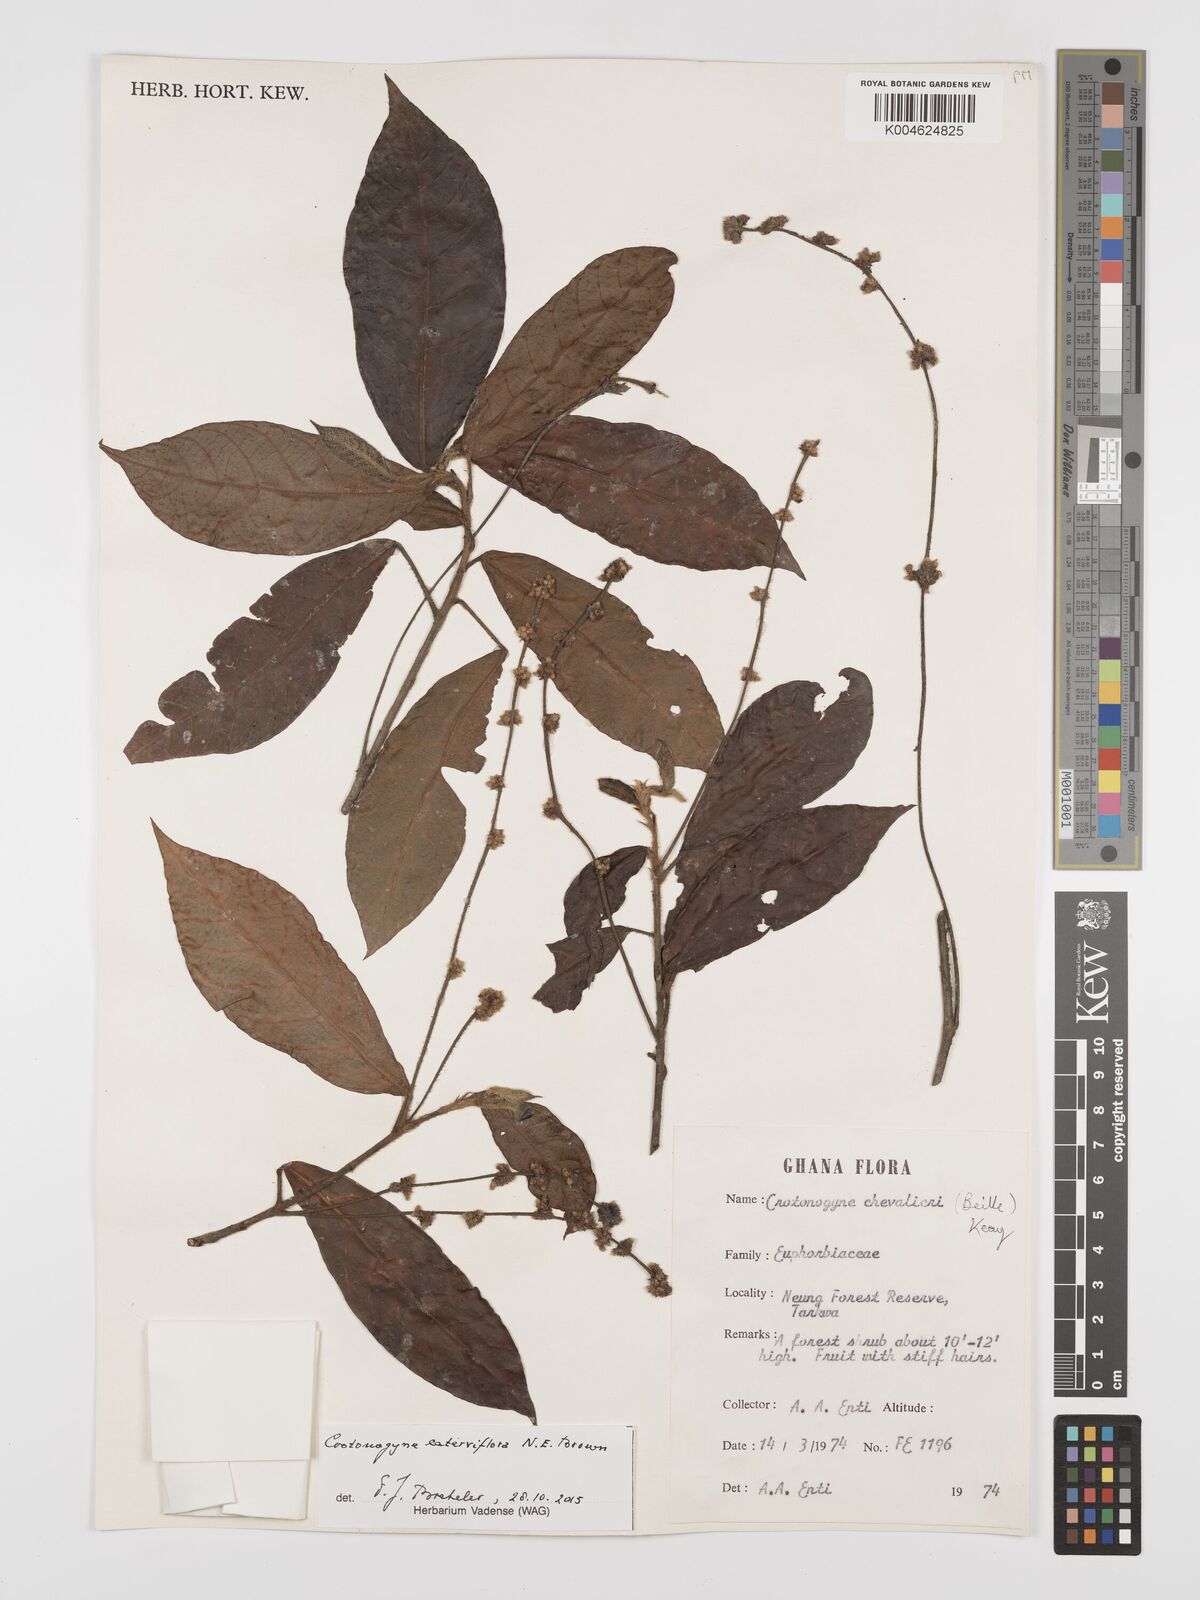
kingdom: Plantae
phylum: Tracheophyta
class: Magnoliopsida
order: Malpighiales
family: Euphorbiaceae
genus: Crotonogyne
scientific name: Crotonogyne caterviflora
